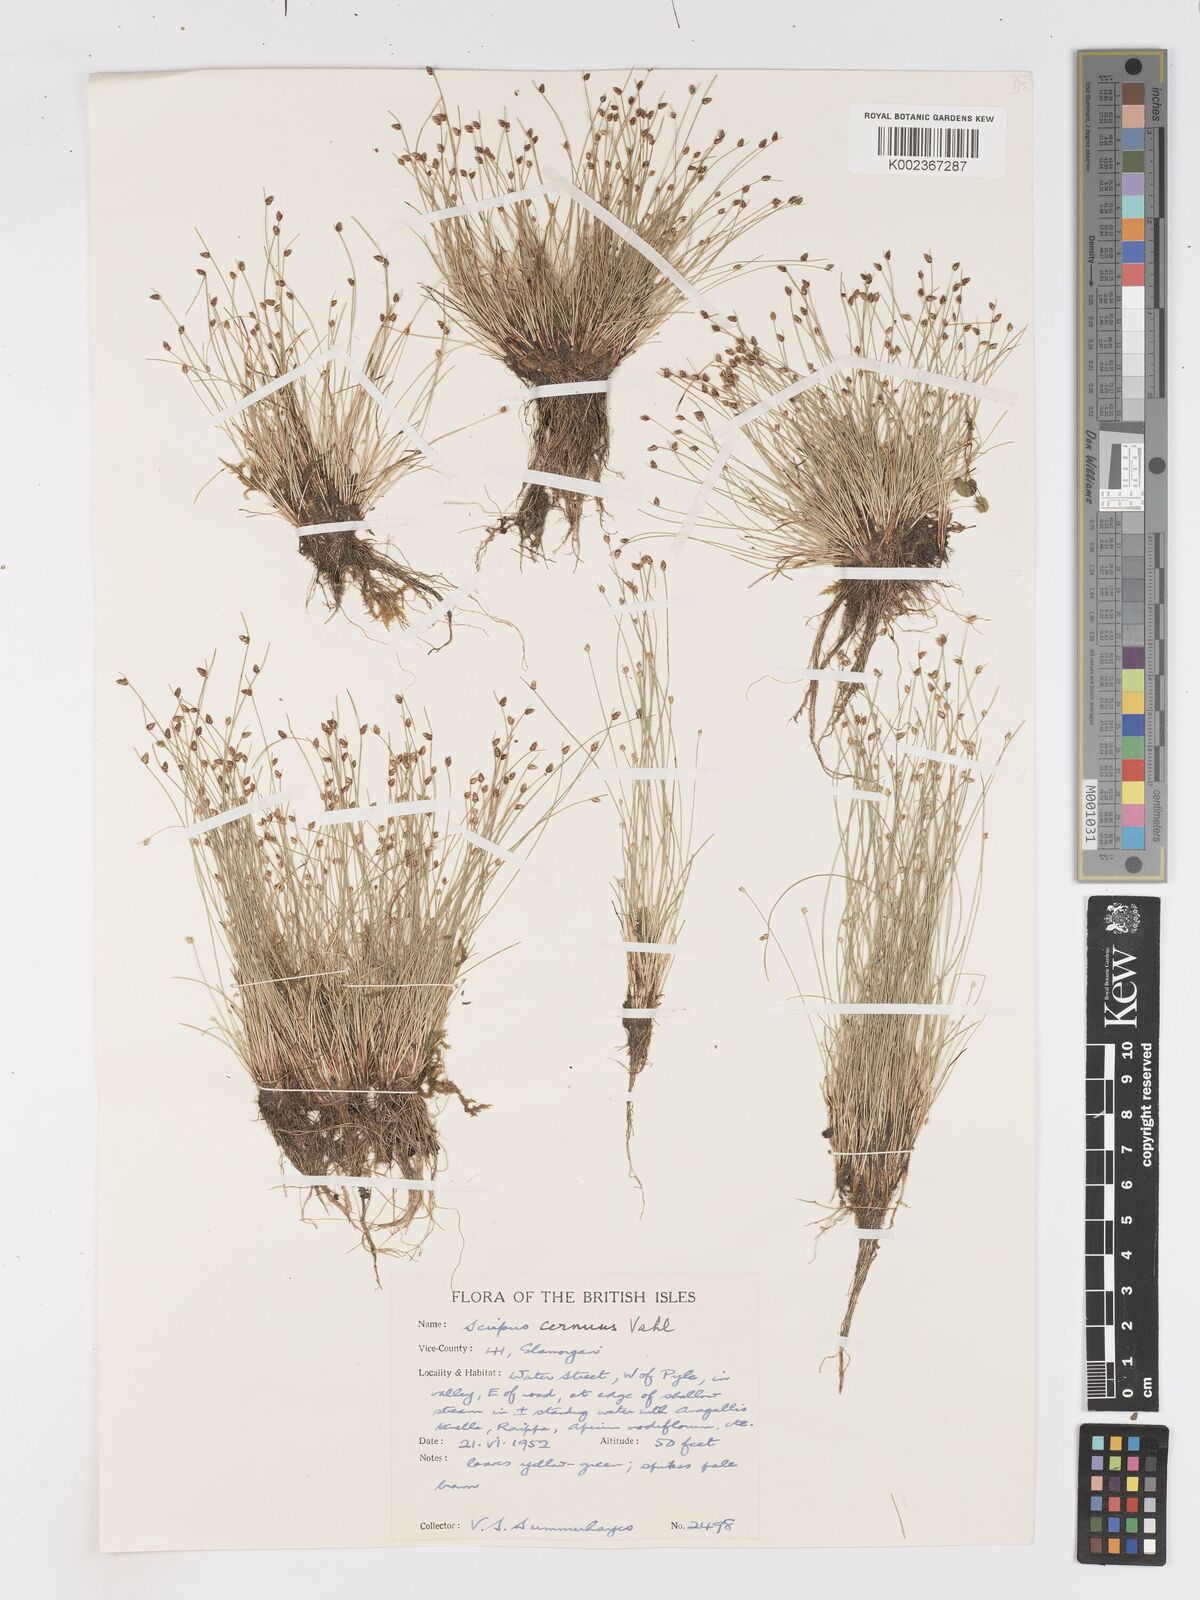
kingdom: Plantae
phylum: Tracheophyta
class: Liliopsida
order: Poales
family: Cyperaceae
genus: Isolepis
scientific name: Isolepis cernua
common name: Slender club-rush
